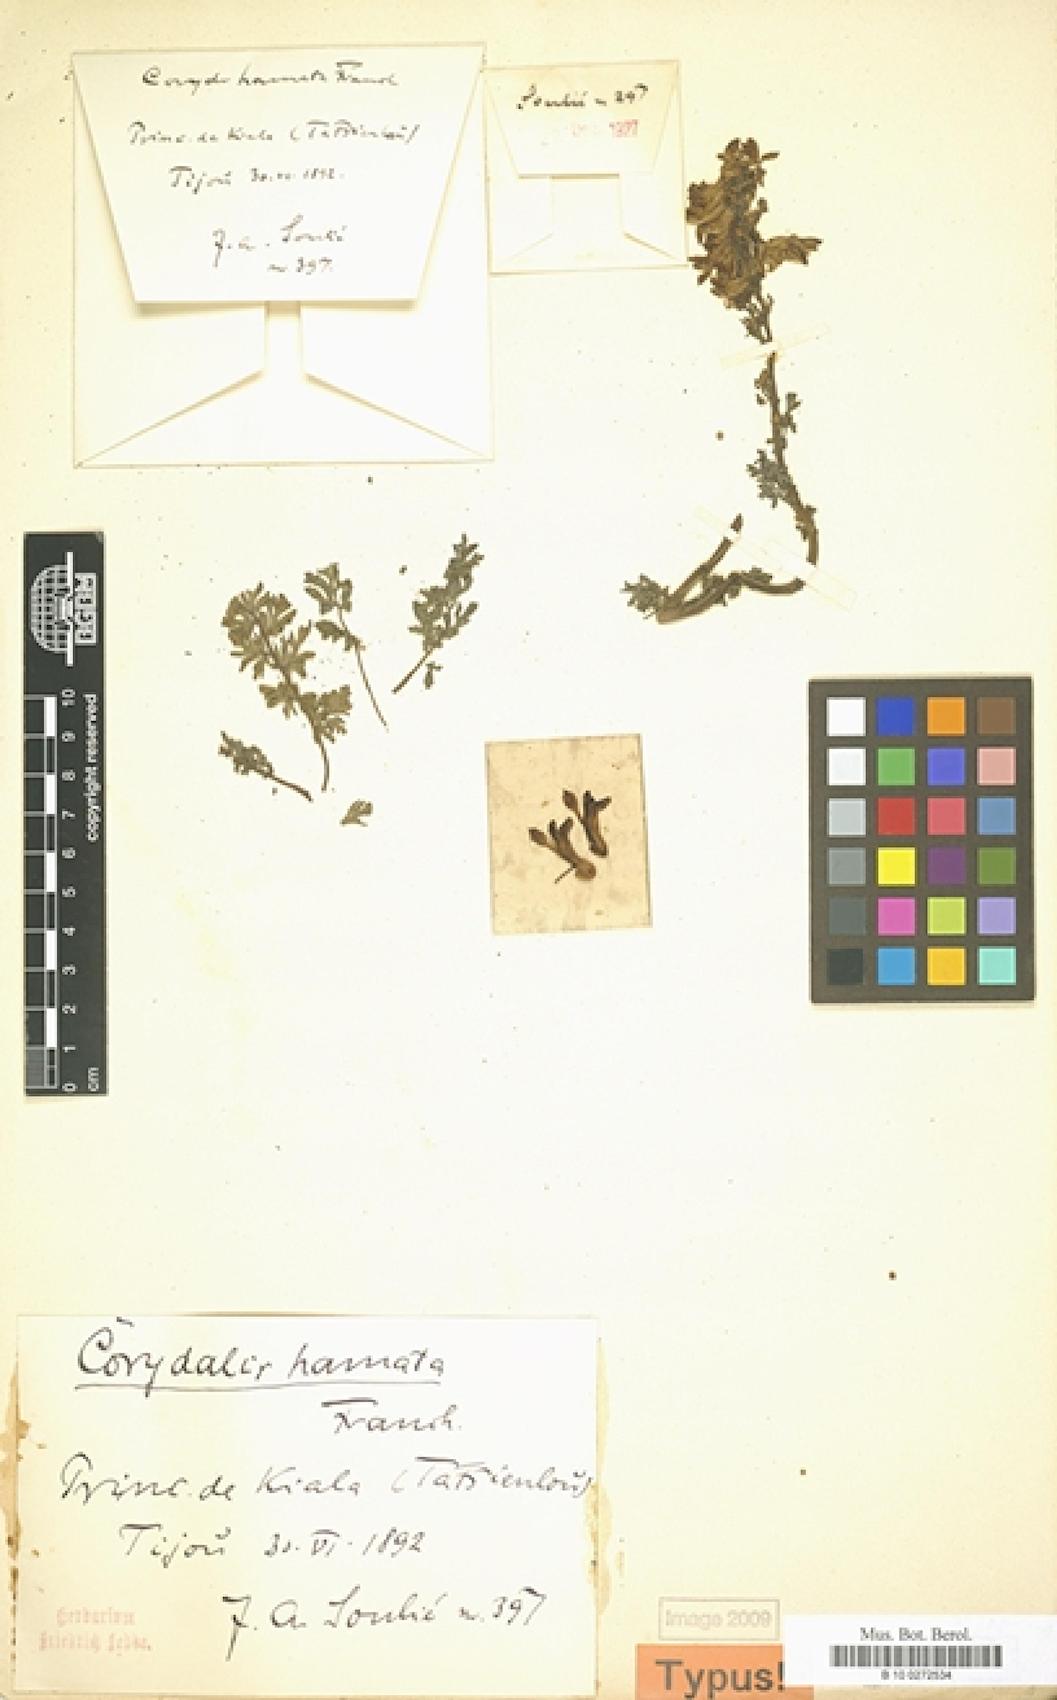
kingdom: Plantae
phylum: Tracheophyta
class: Magnoliopsida
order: Ranunculales
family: Papaveraceae
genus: Corydalis
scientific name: Corydalis hamata
